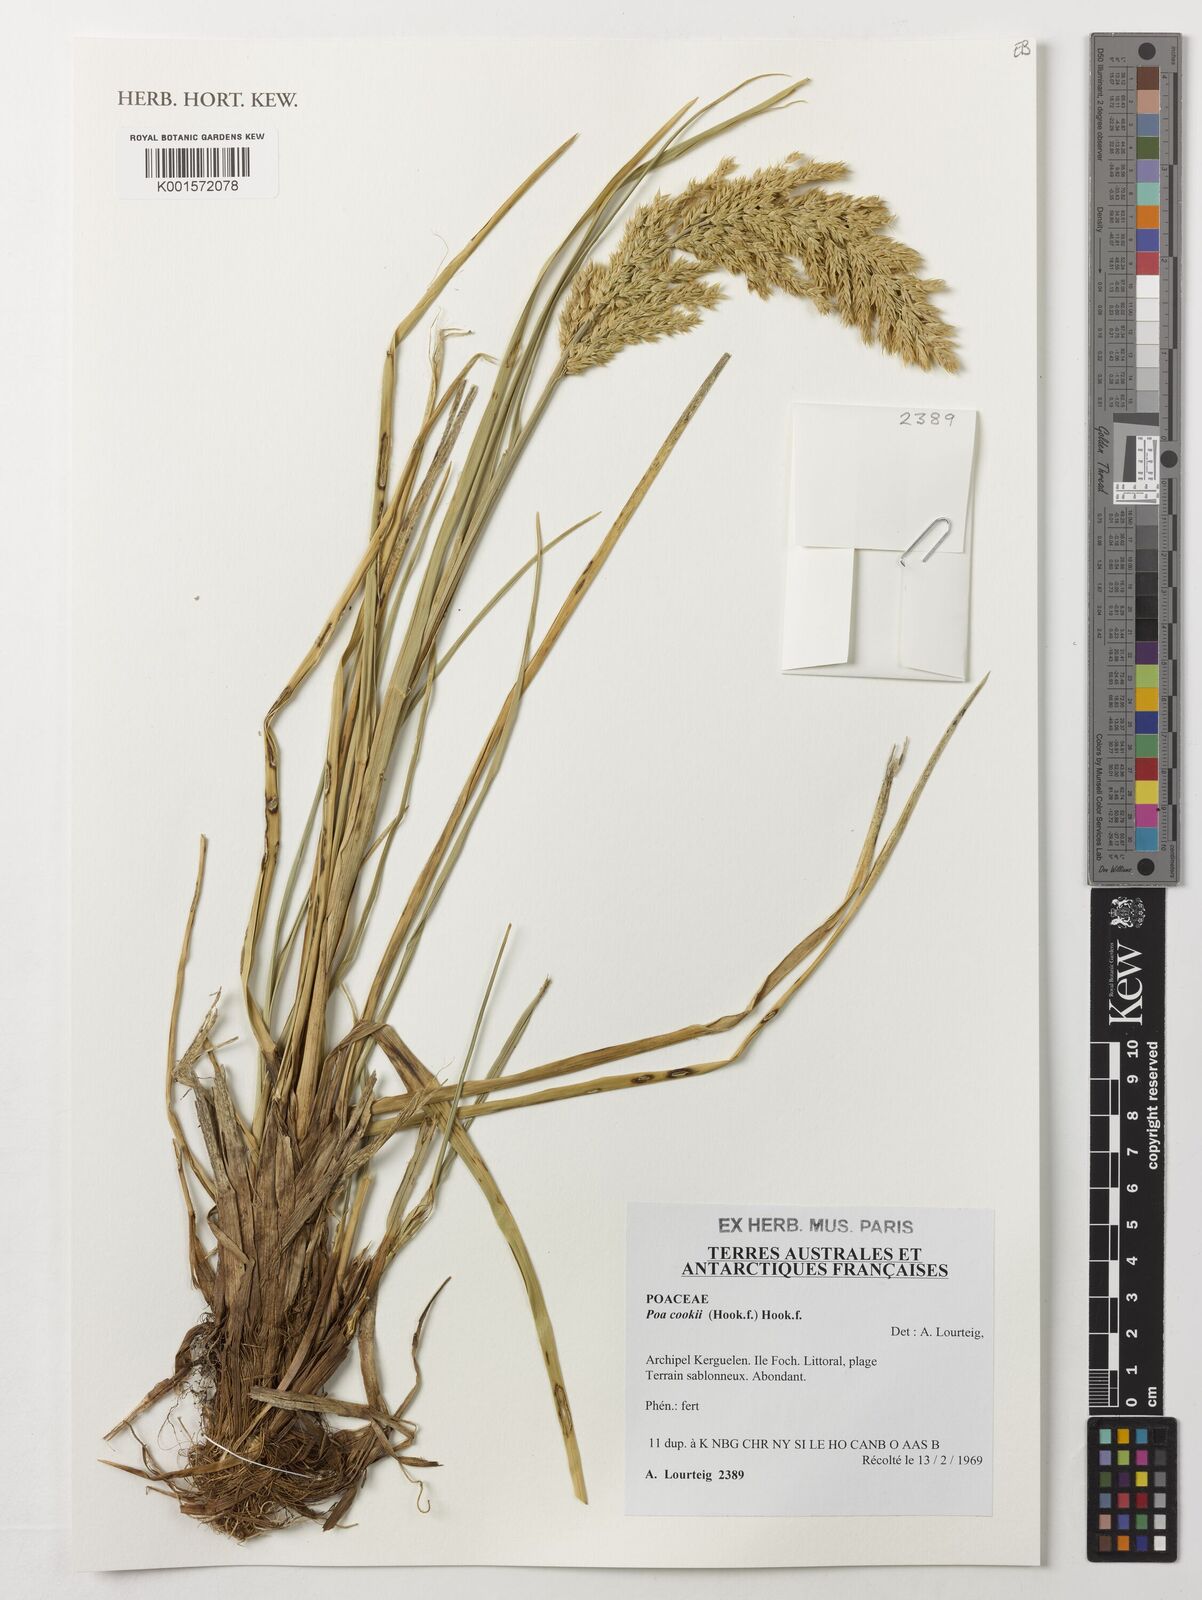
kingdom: Plantae
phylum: Tracheophyta
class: Liliopsida
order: Poales
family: Poaceae
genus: Poa
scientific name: Poa cookii
